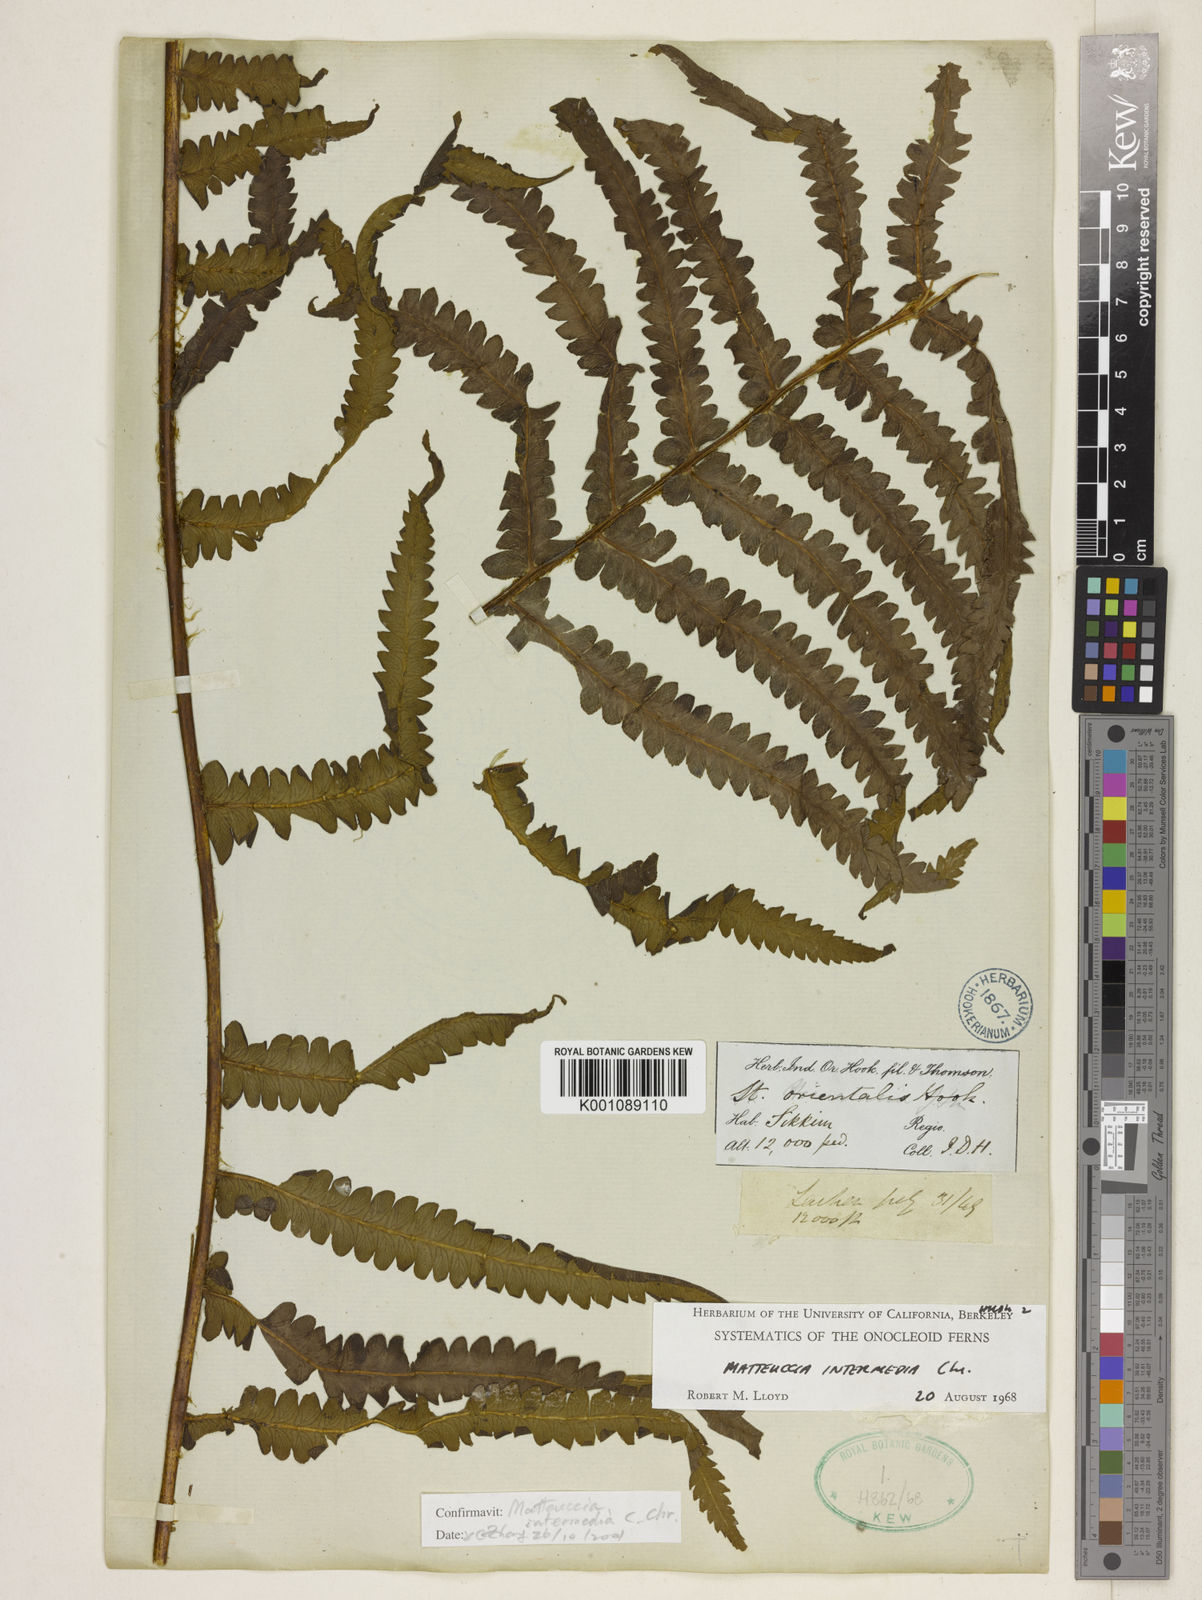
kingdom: Plantae
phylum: Tracheophyta
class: Polypodiopsida
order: Polypodiales
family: Onocleaceae
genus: Pentarhizidium
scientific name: Pentarhizidium intermedium
